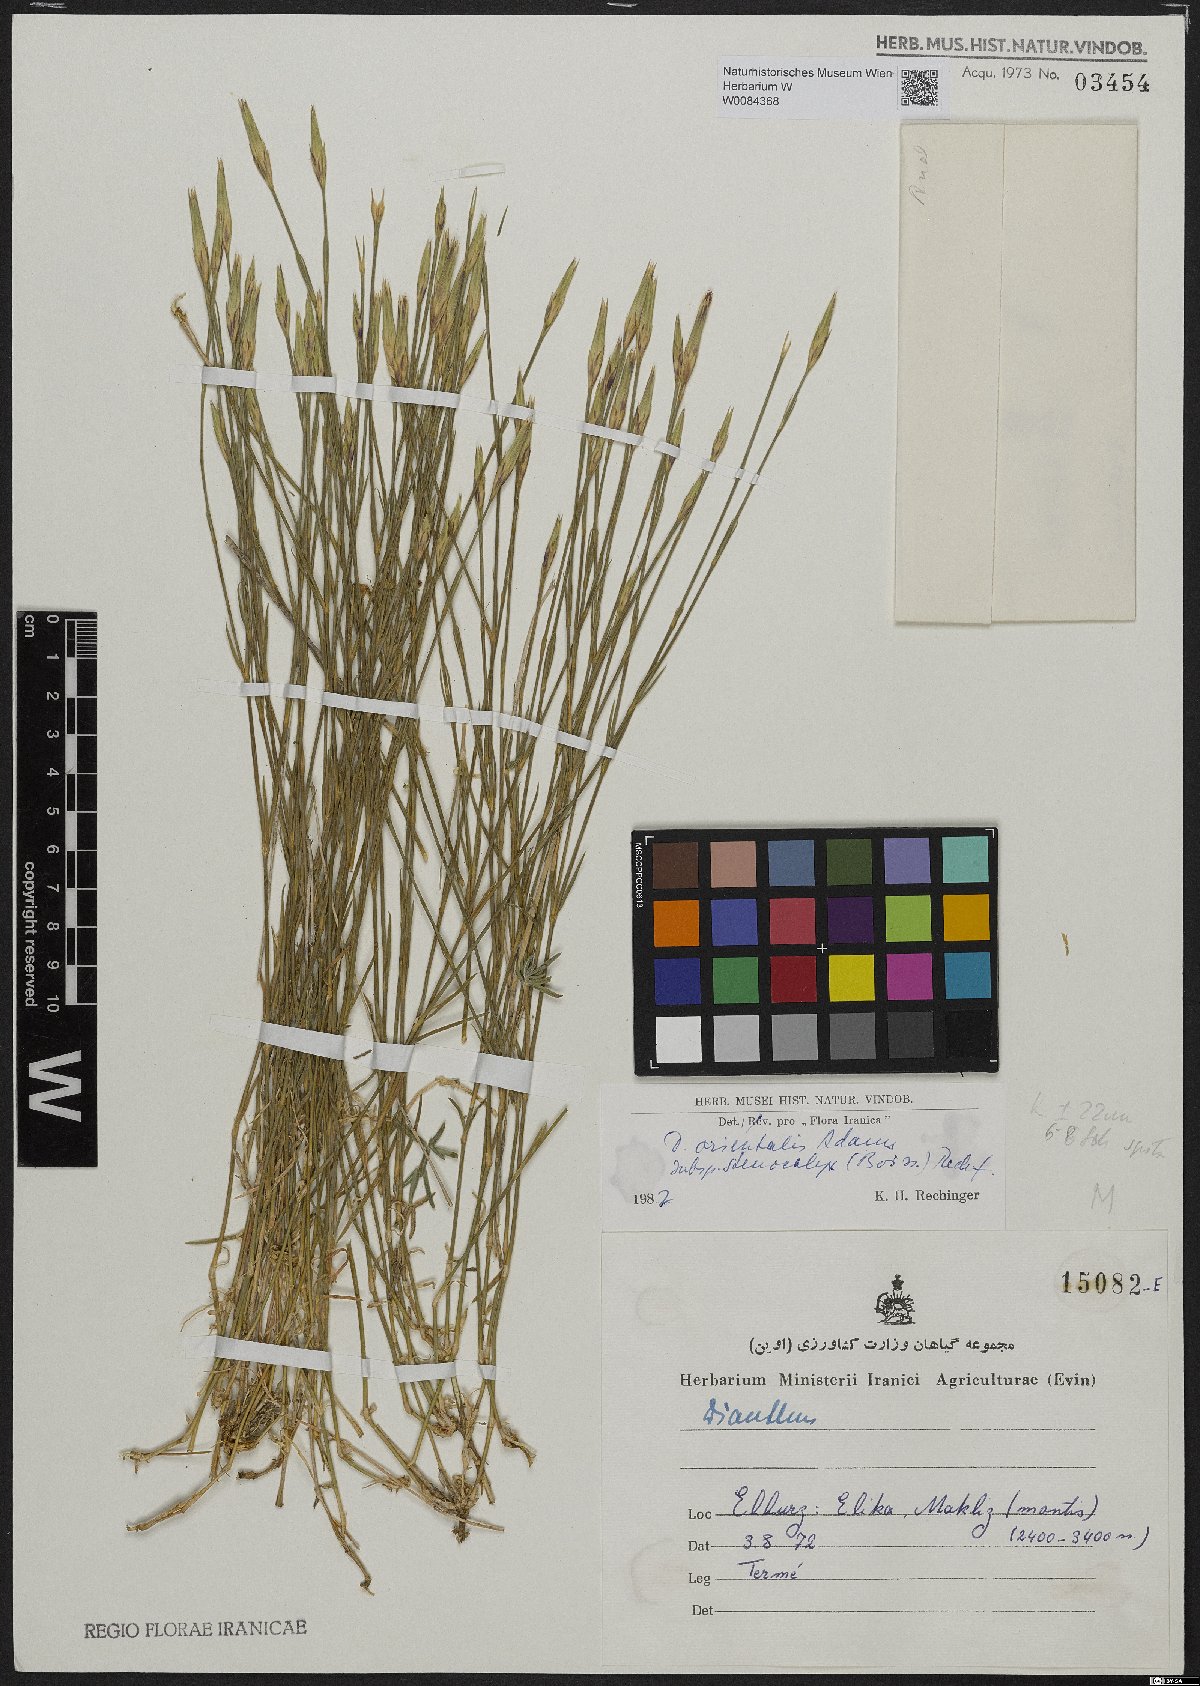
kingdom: Plantae
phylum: Tracheophyta
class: Magnoliopsida
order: Caryophyllales
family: Caryophyllaceae
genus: Dianthus
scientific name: Dianthus orientalis
